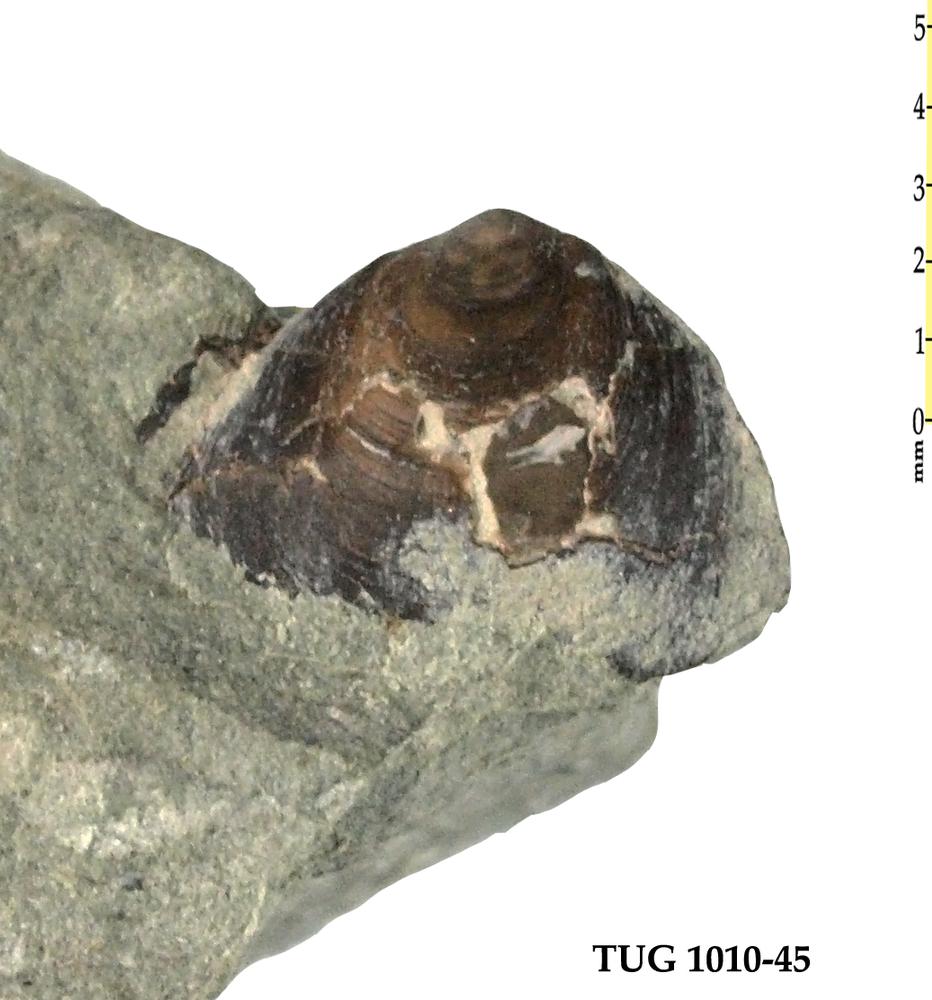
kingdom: Animalia
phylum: Brachiopoda
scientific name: Brachiopoda
